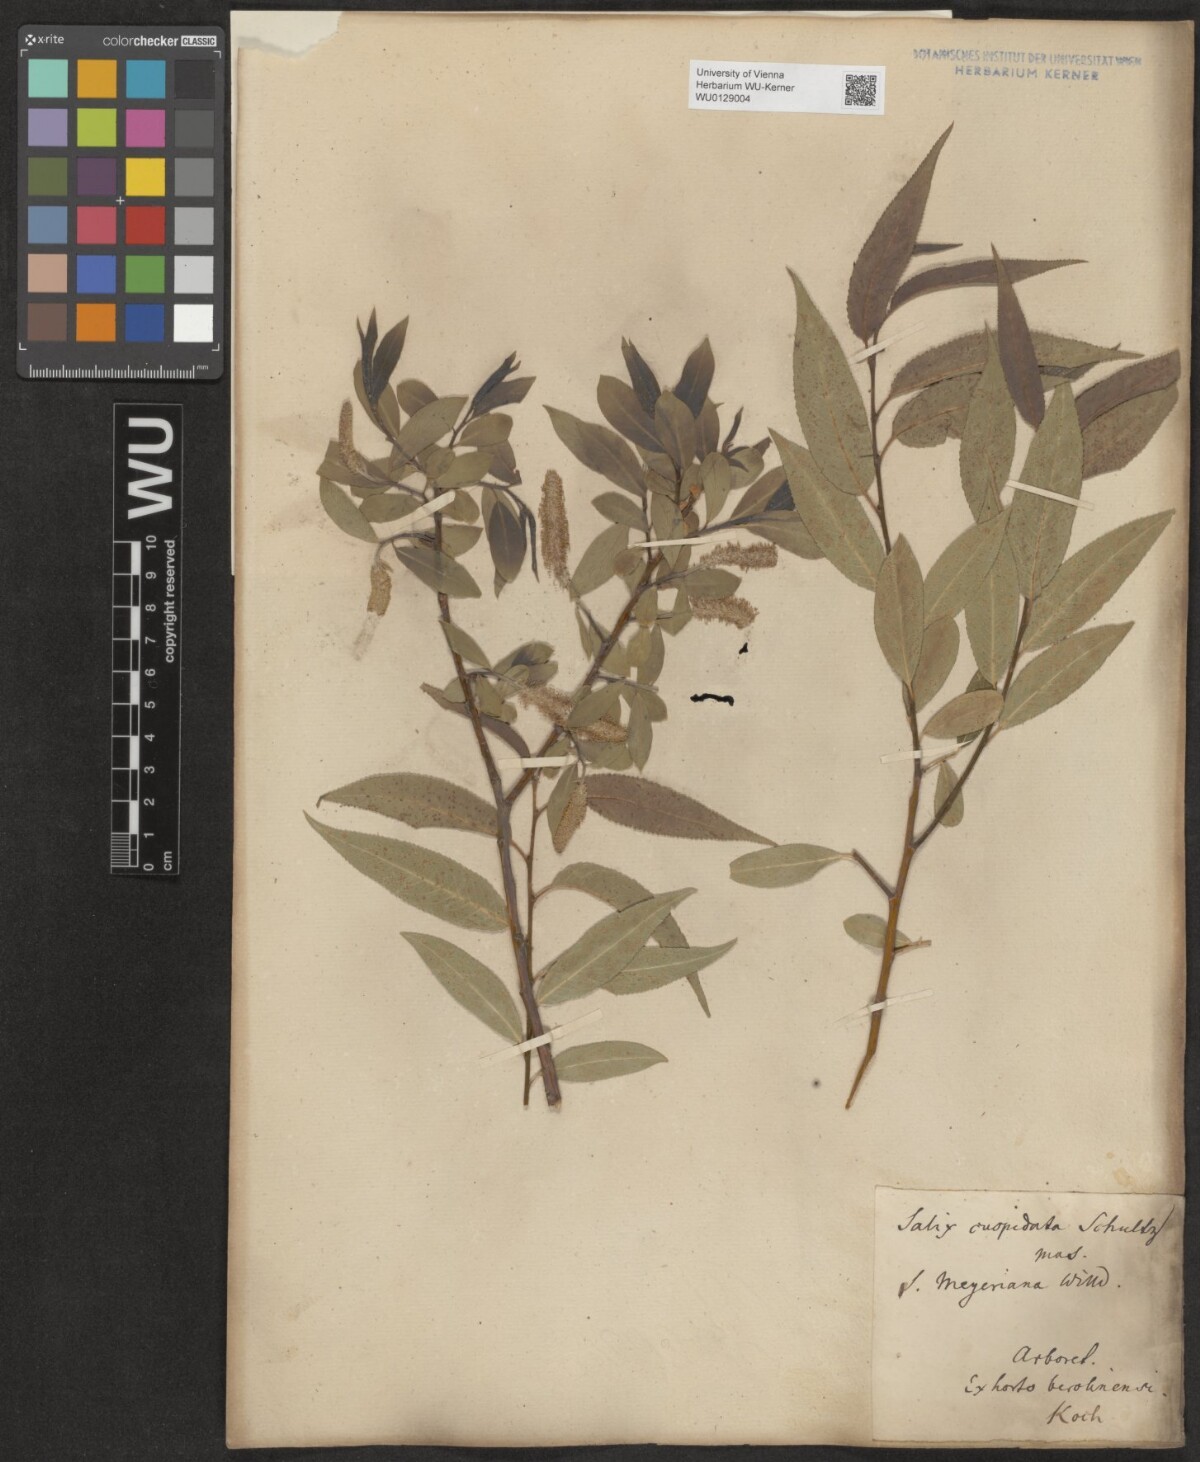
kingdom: Plantae
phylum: Tracheophyta
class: Magnoliopsida
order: Malpighiales
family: Salicaceae
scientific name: Salicaceae
